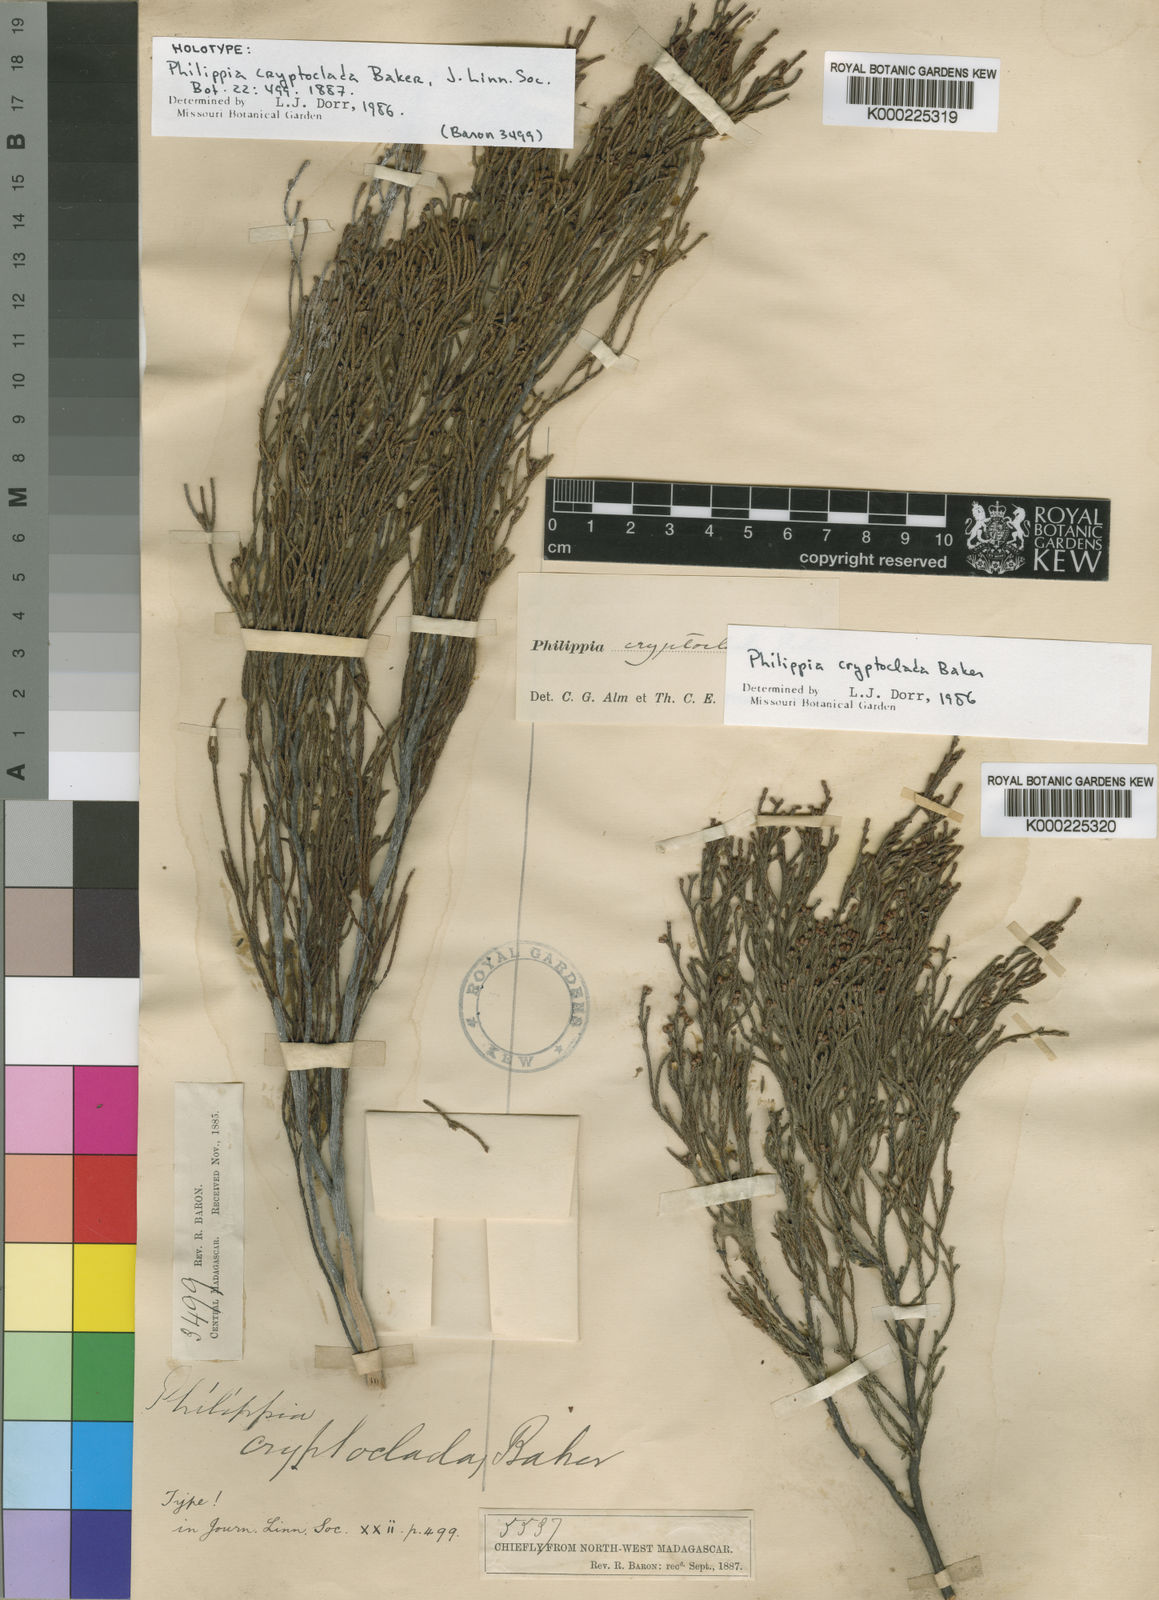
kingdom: Plantae
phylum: Tracheophyta
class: Magnoliopsida
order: Ericales
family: Ericaceae
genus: Erica
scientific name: Erica cryptoclada
